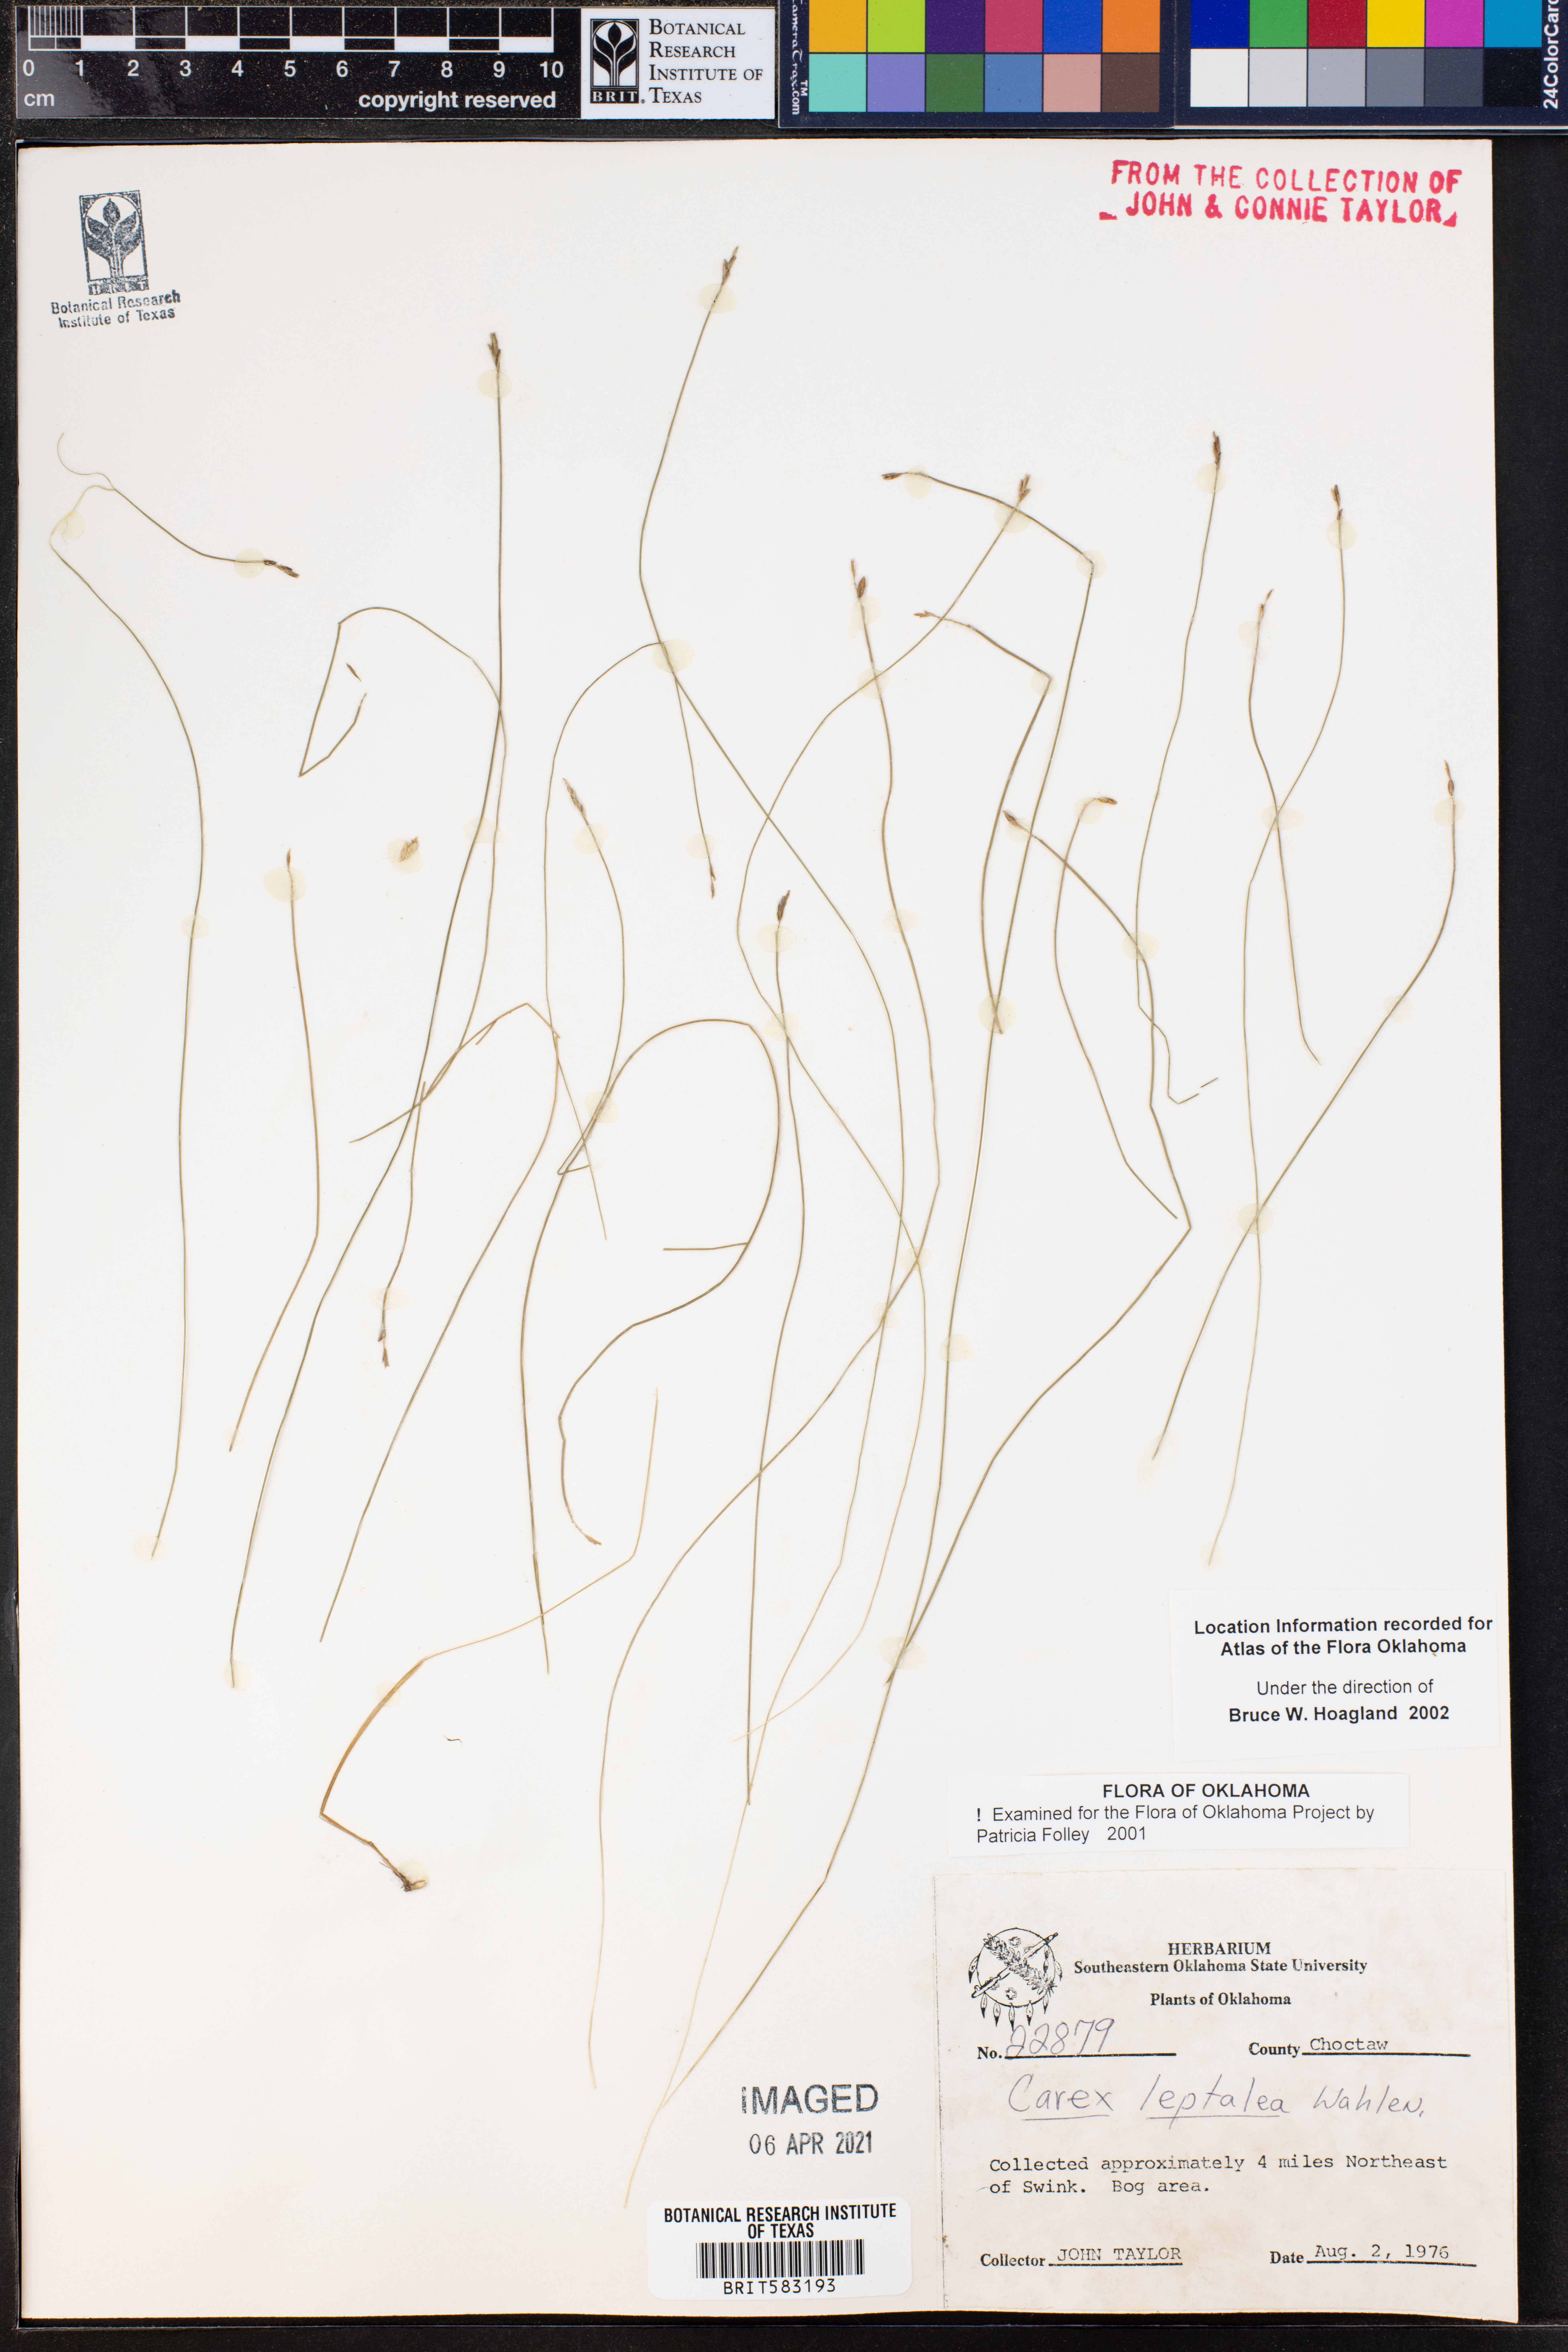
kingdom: Plantae
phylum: Tracheophyta
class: Liliopsida
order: Poales
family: Cyperaceae
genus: Carex
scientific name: Carex leptalea
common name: Bristly-stalked sedge
